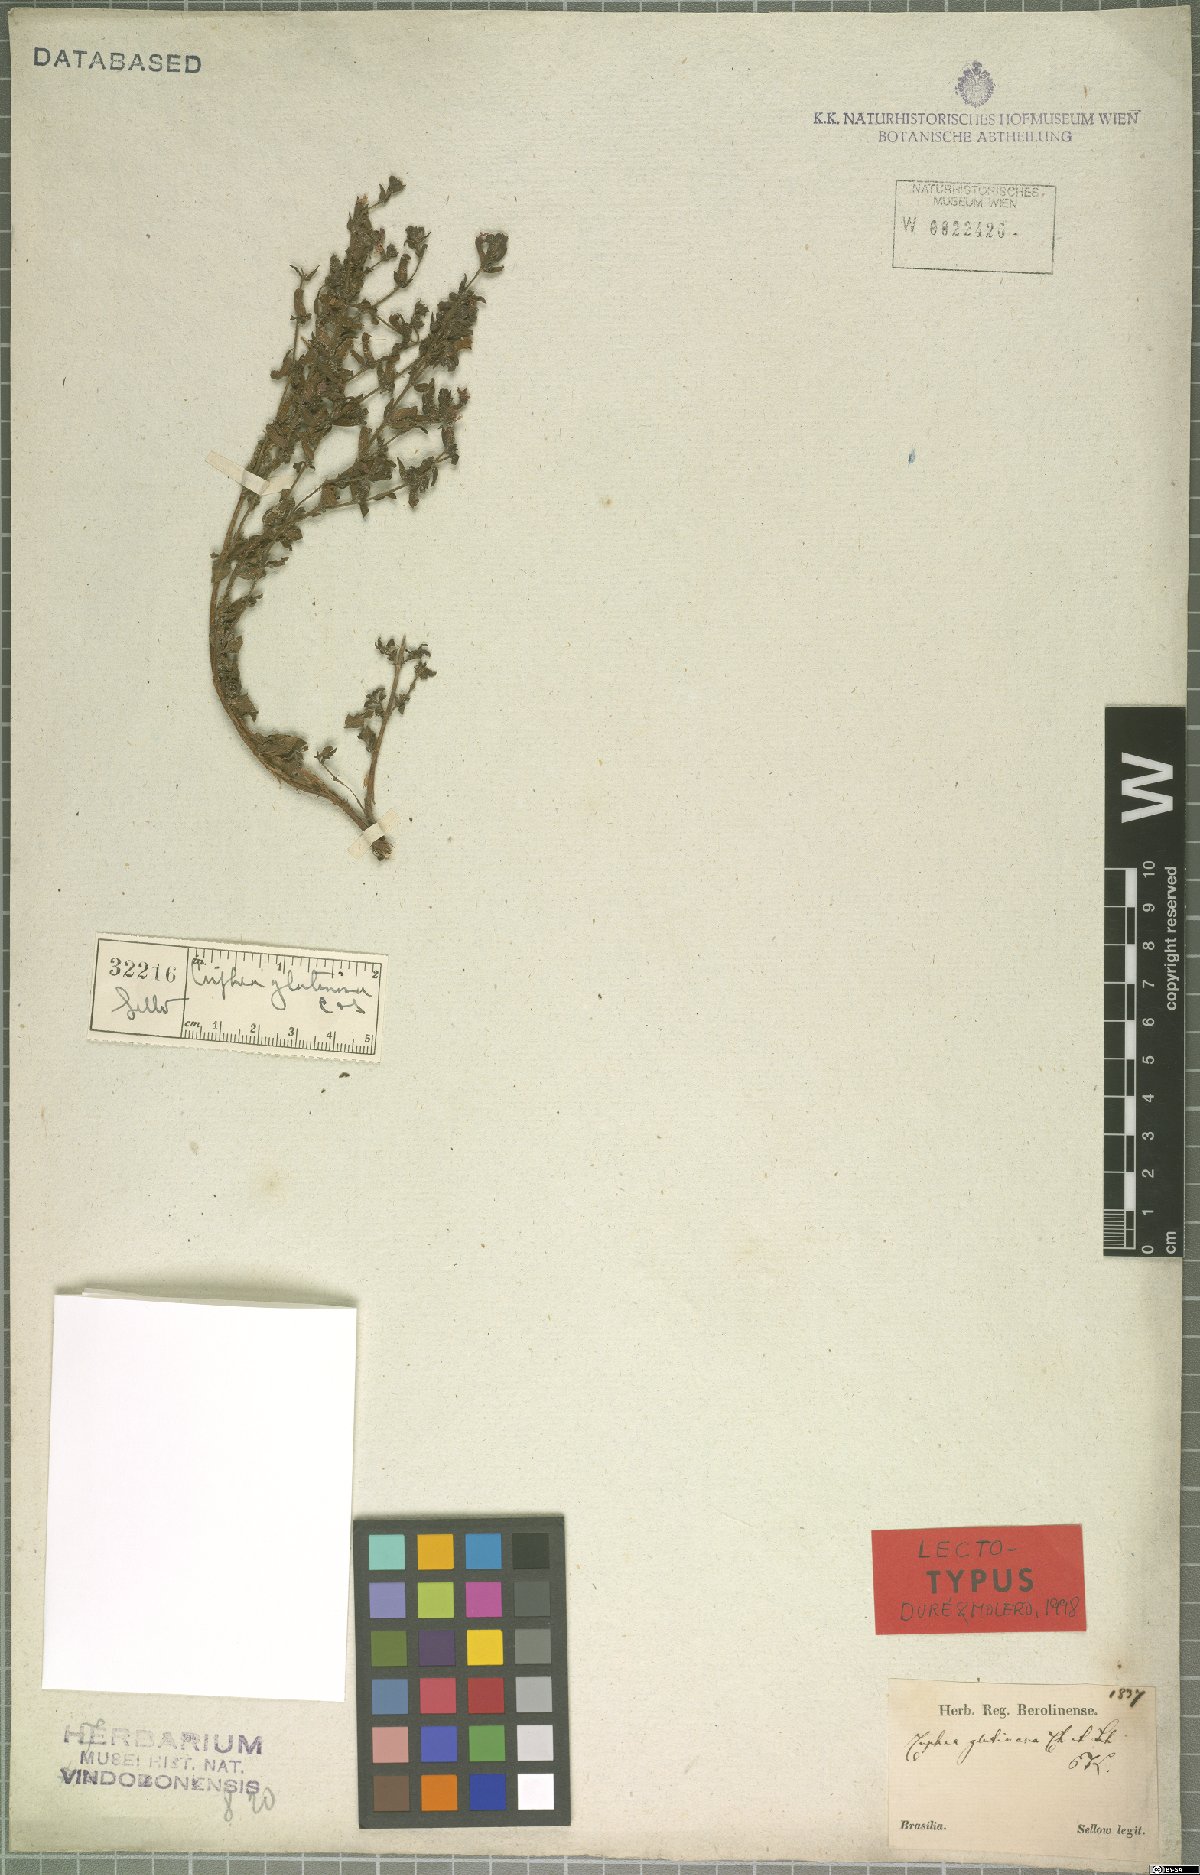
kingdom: Plantae
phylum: Tracheophyta
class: Magnoliopsida
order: Myrtales
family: Lythraceae
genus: Cuphea
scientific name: Cuphea glutinosa
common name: Sticky waxweed
